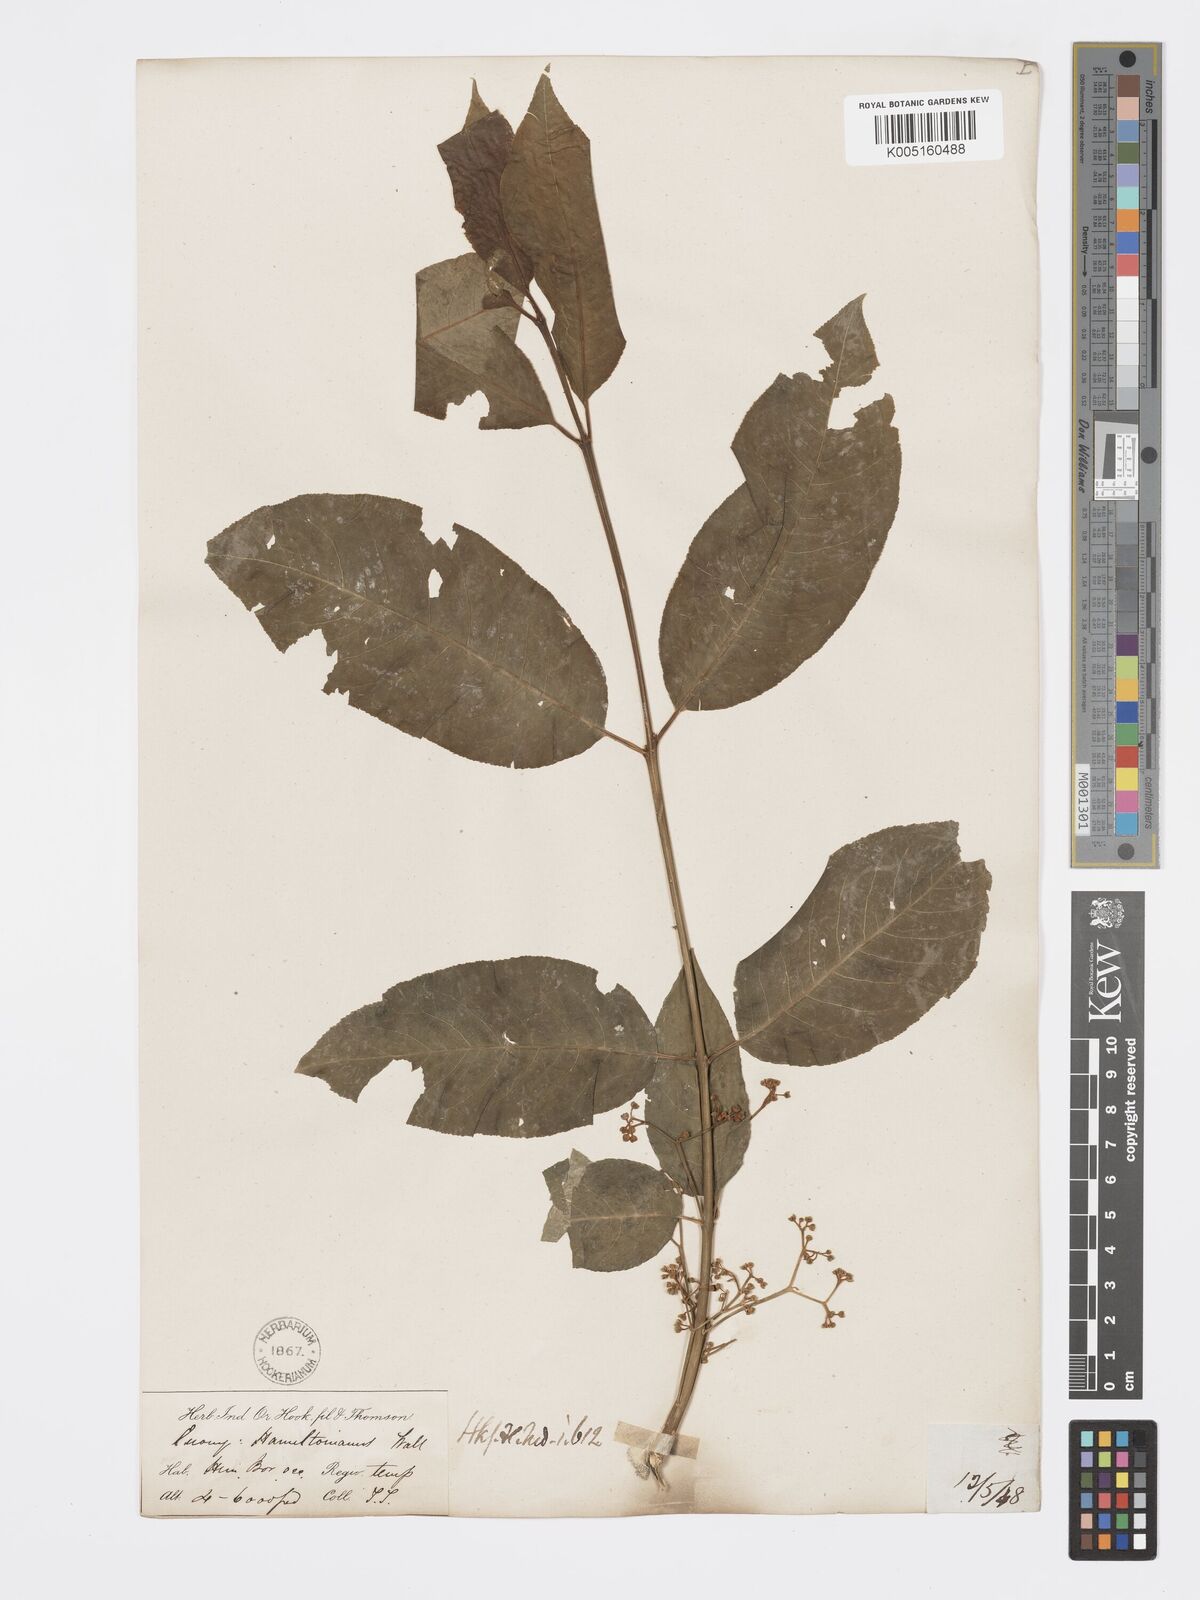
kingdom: Plantae
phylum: Tracheophyta
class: Magnoliopsida
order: Celastrales
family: Celastraceae
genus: Euonymus
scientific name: Euonymus
